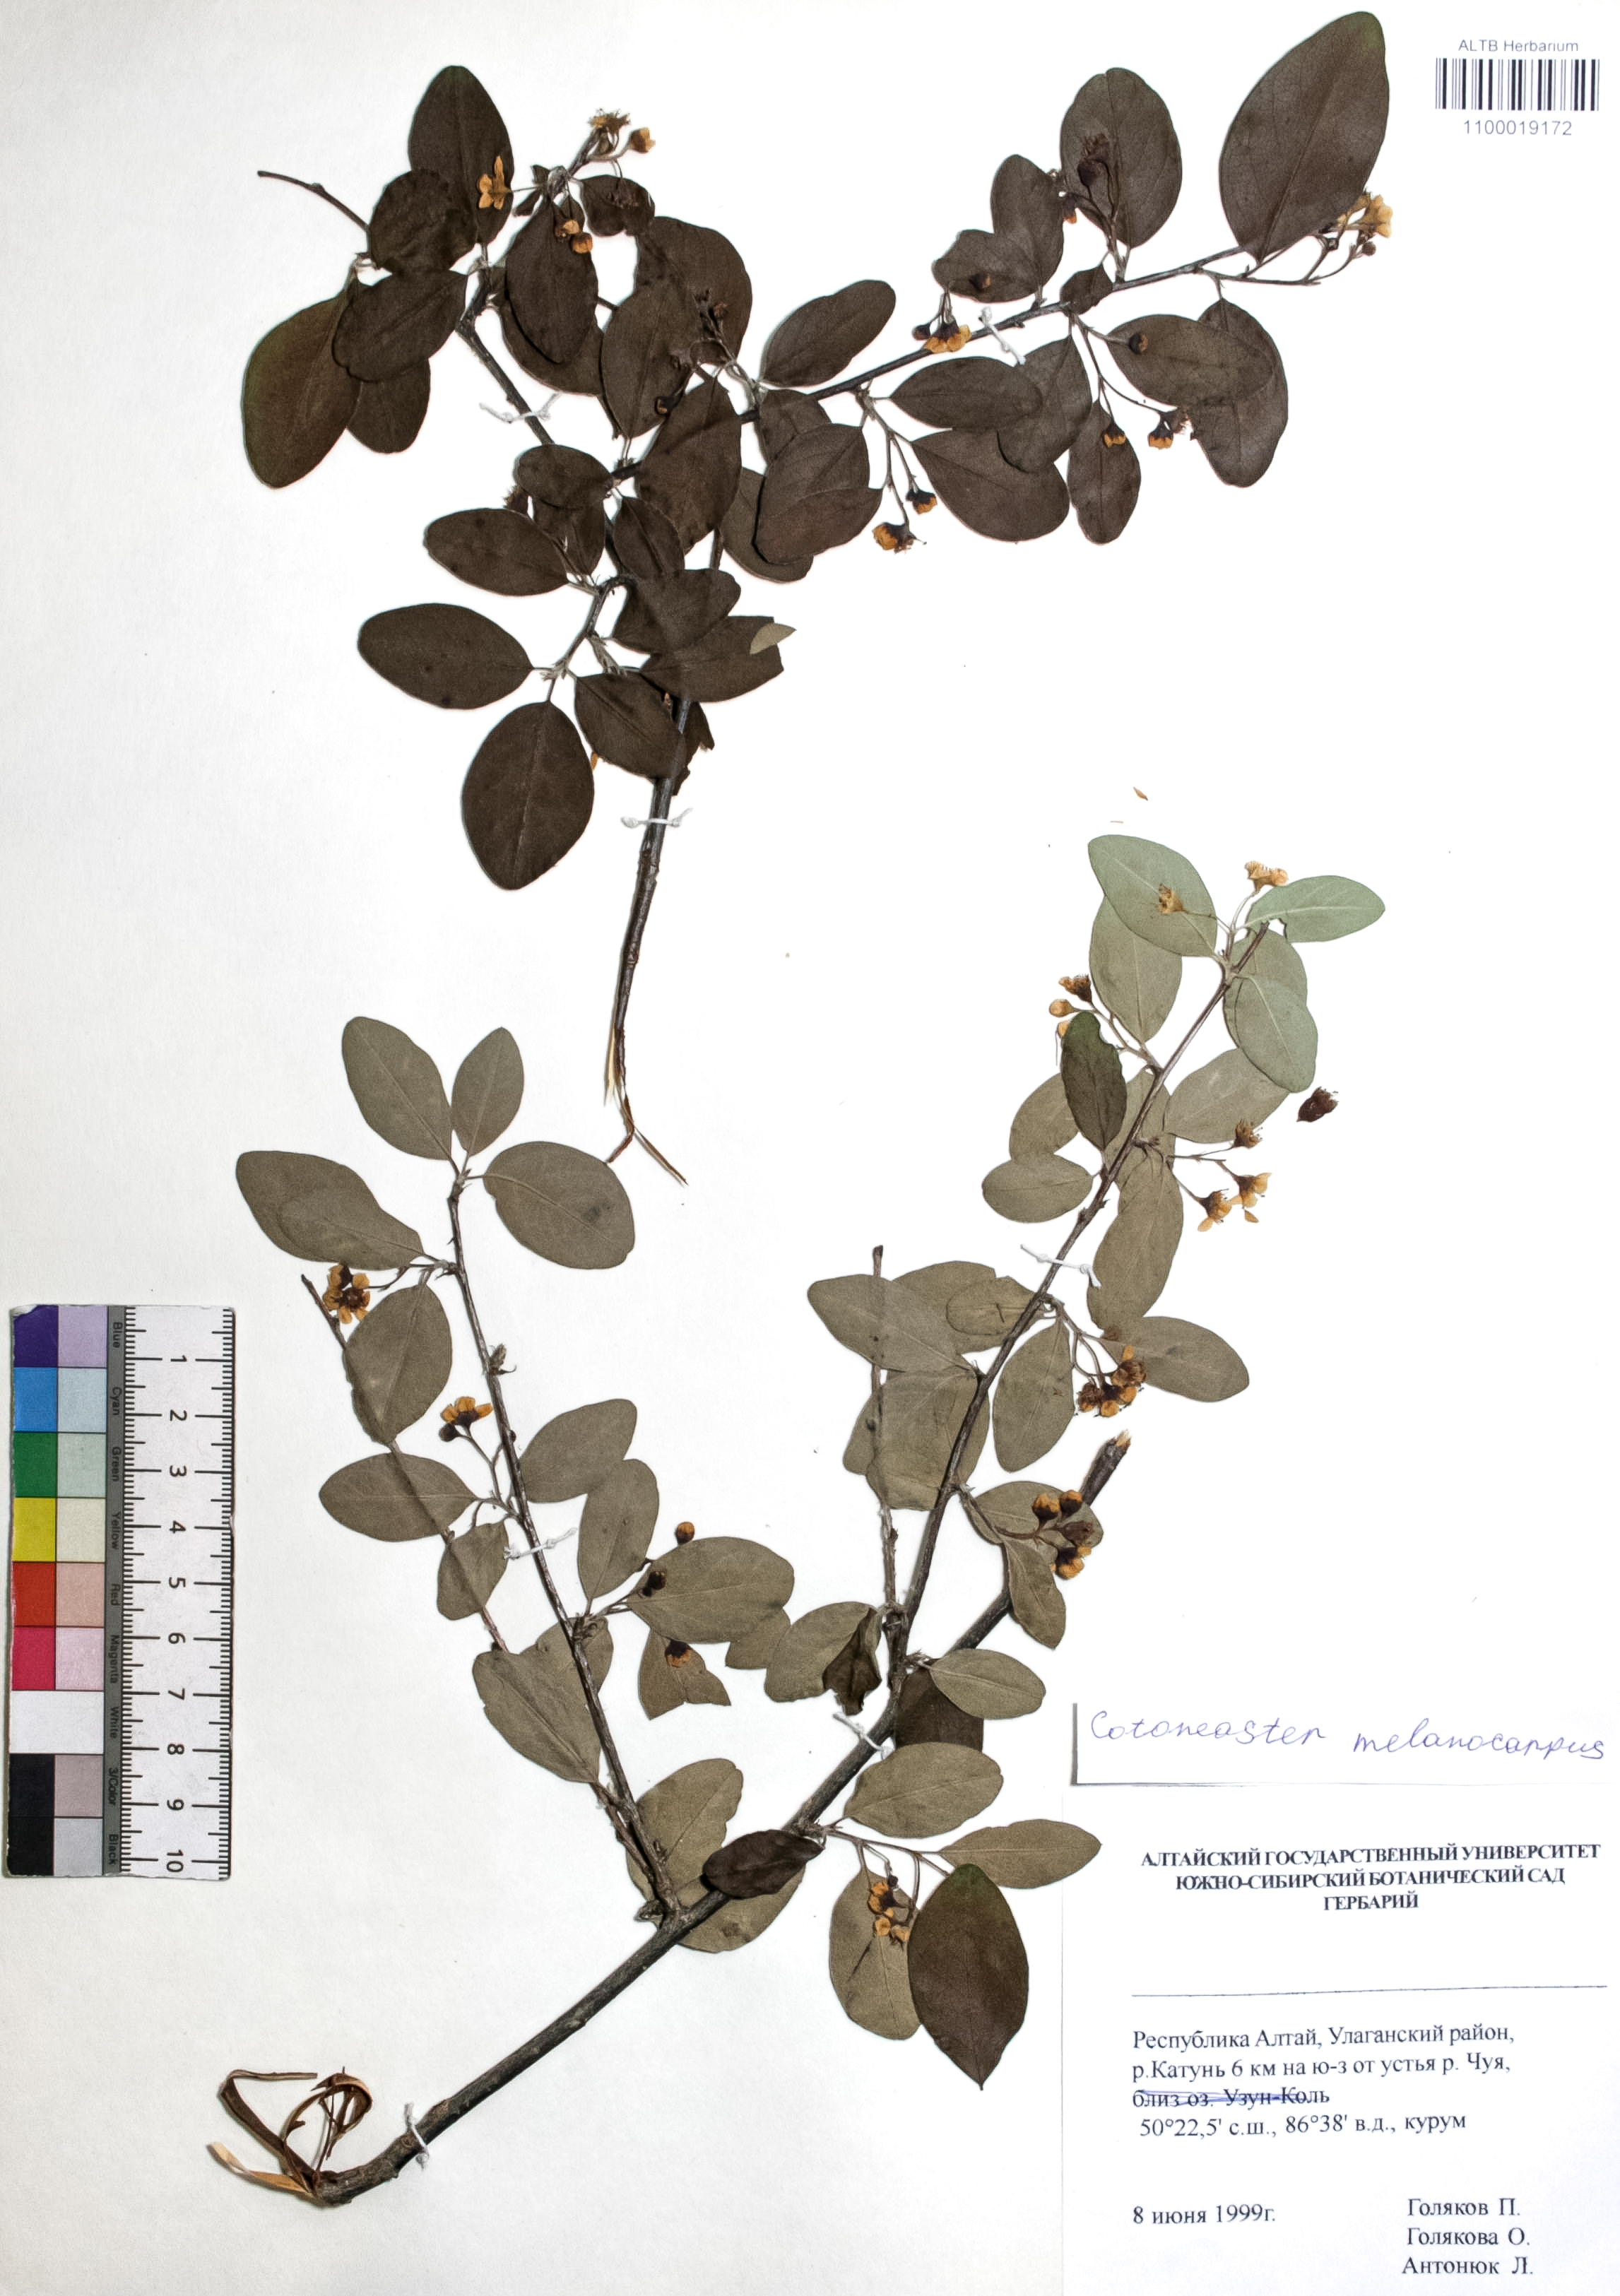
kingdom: Plantae
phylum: Tracheophyta
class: Magnoliopsida
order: Rosales
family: Rosaceae
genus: Cotoneaster
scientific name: Cotoneaster niger
